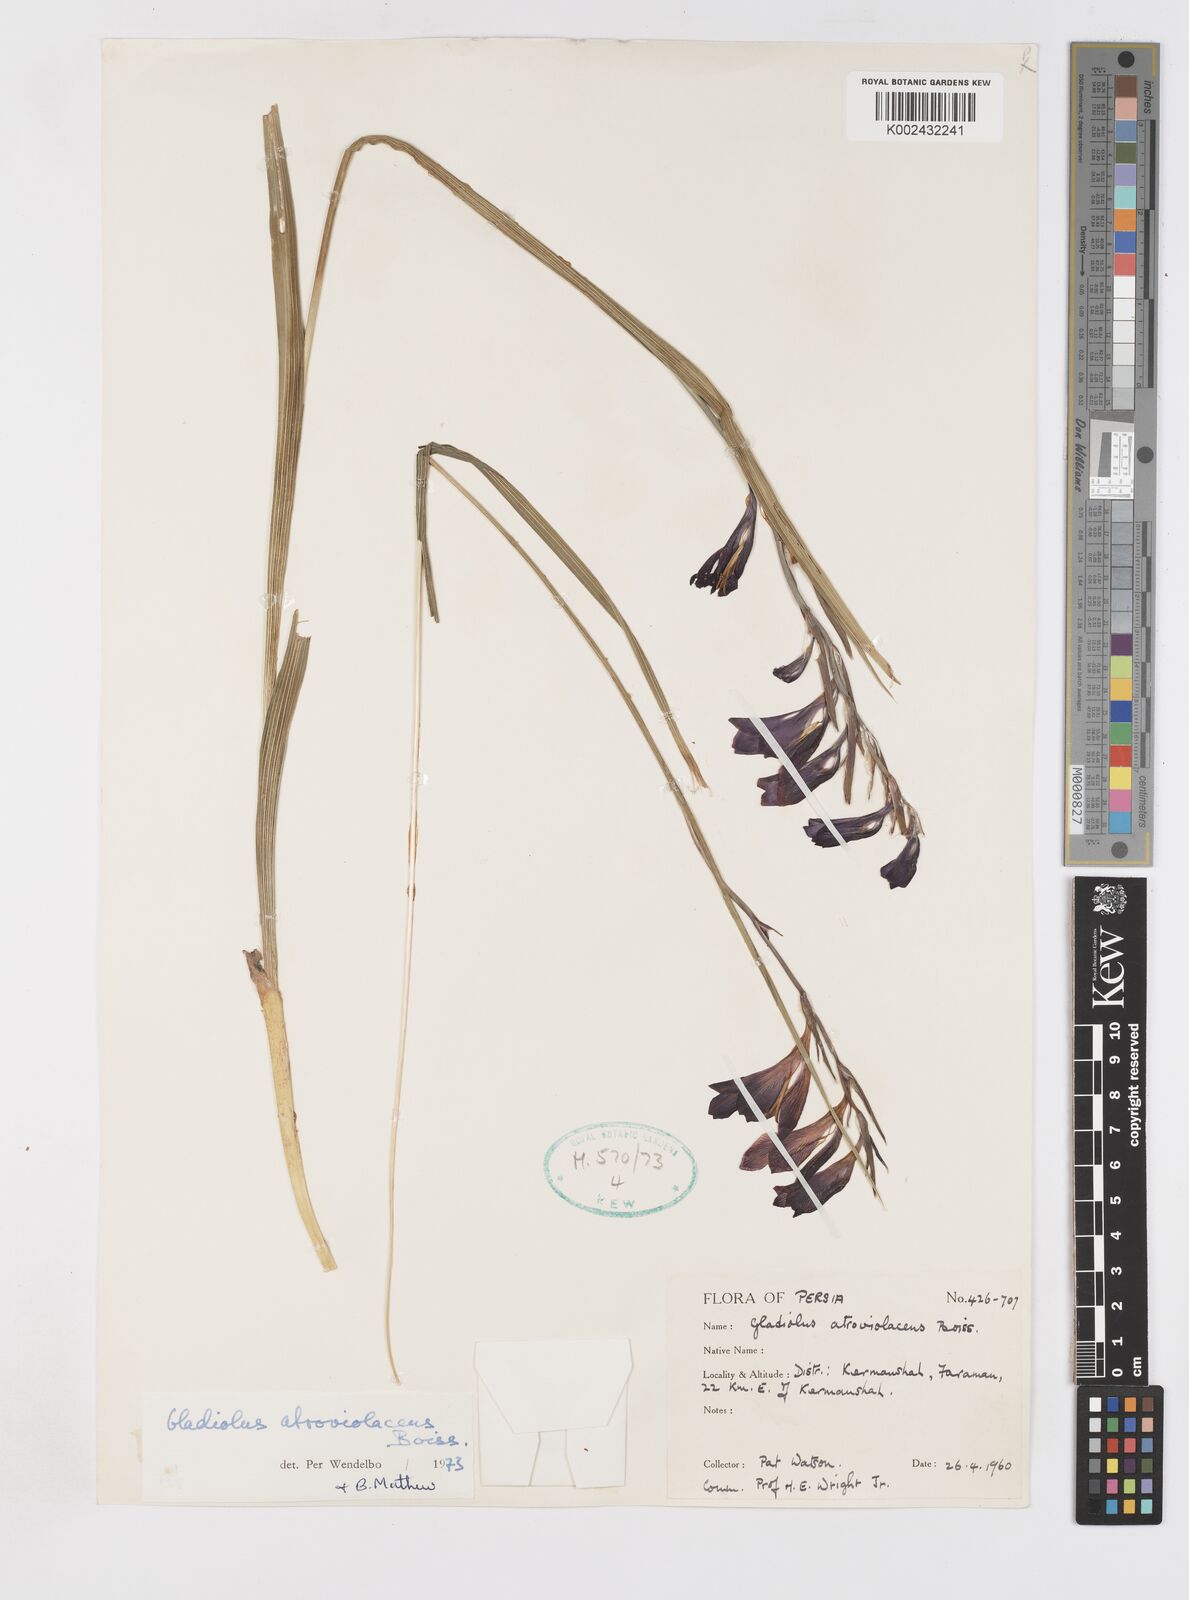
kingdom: Plantae
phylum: Tracheophyta
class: Liliopsida
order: Asparagales
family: Iridaceae
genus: Gladiolus
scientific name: Gladiolus atroviolaceus
